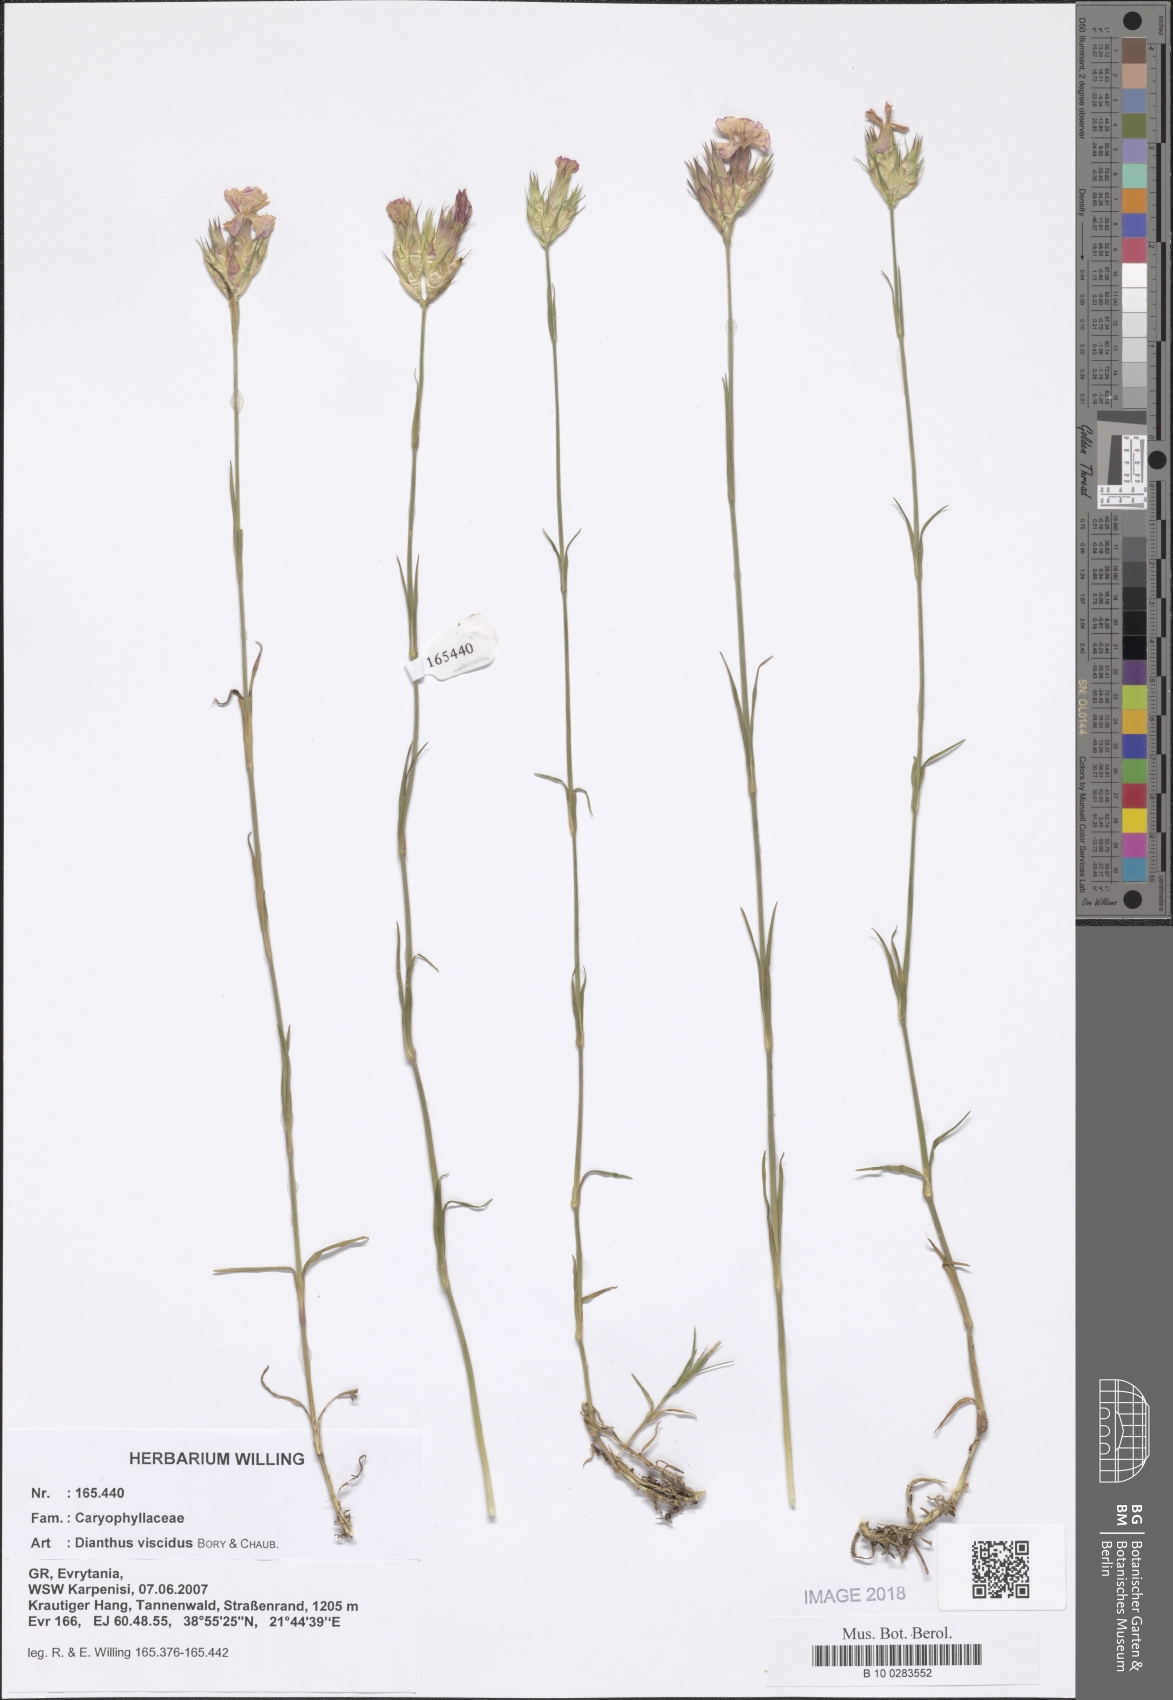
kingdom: Plantae
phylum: Tracheophyta
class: Magnoliopsida
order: Caryophyllales
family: Caryophyllaceae
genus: Dianthus
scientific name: Dianthus viscidus
